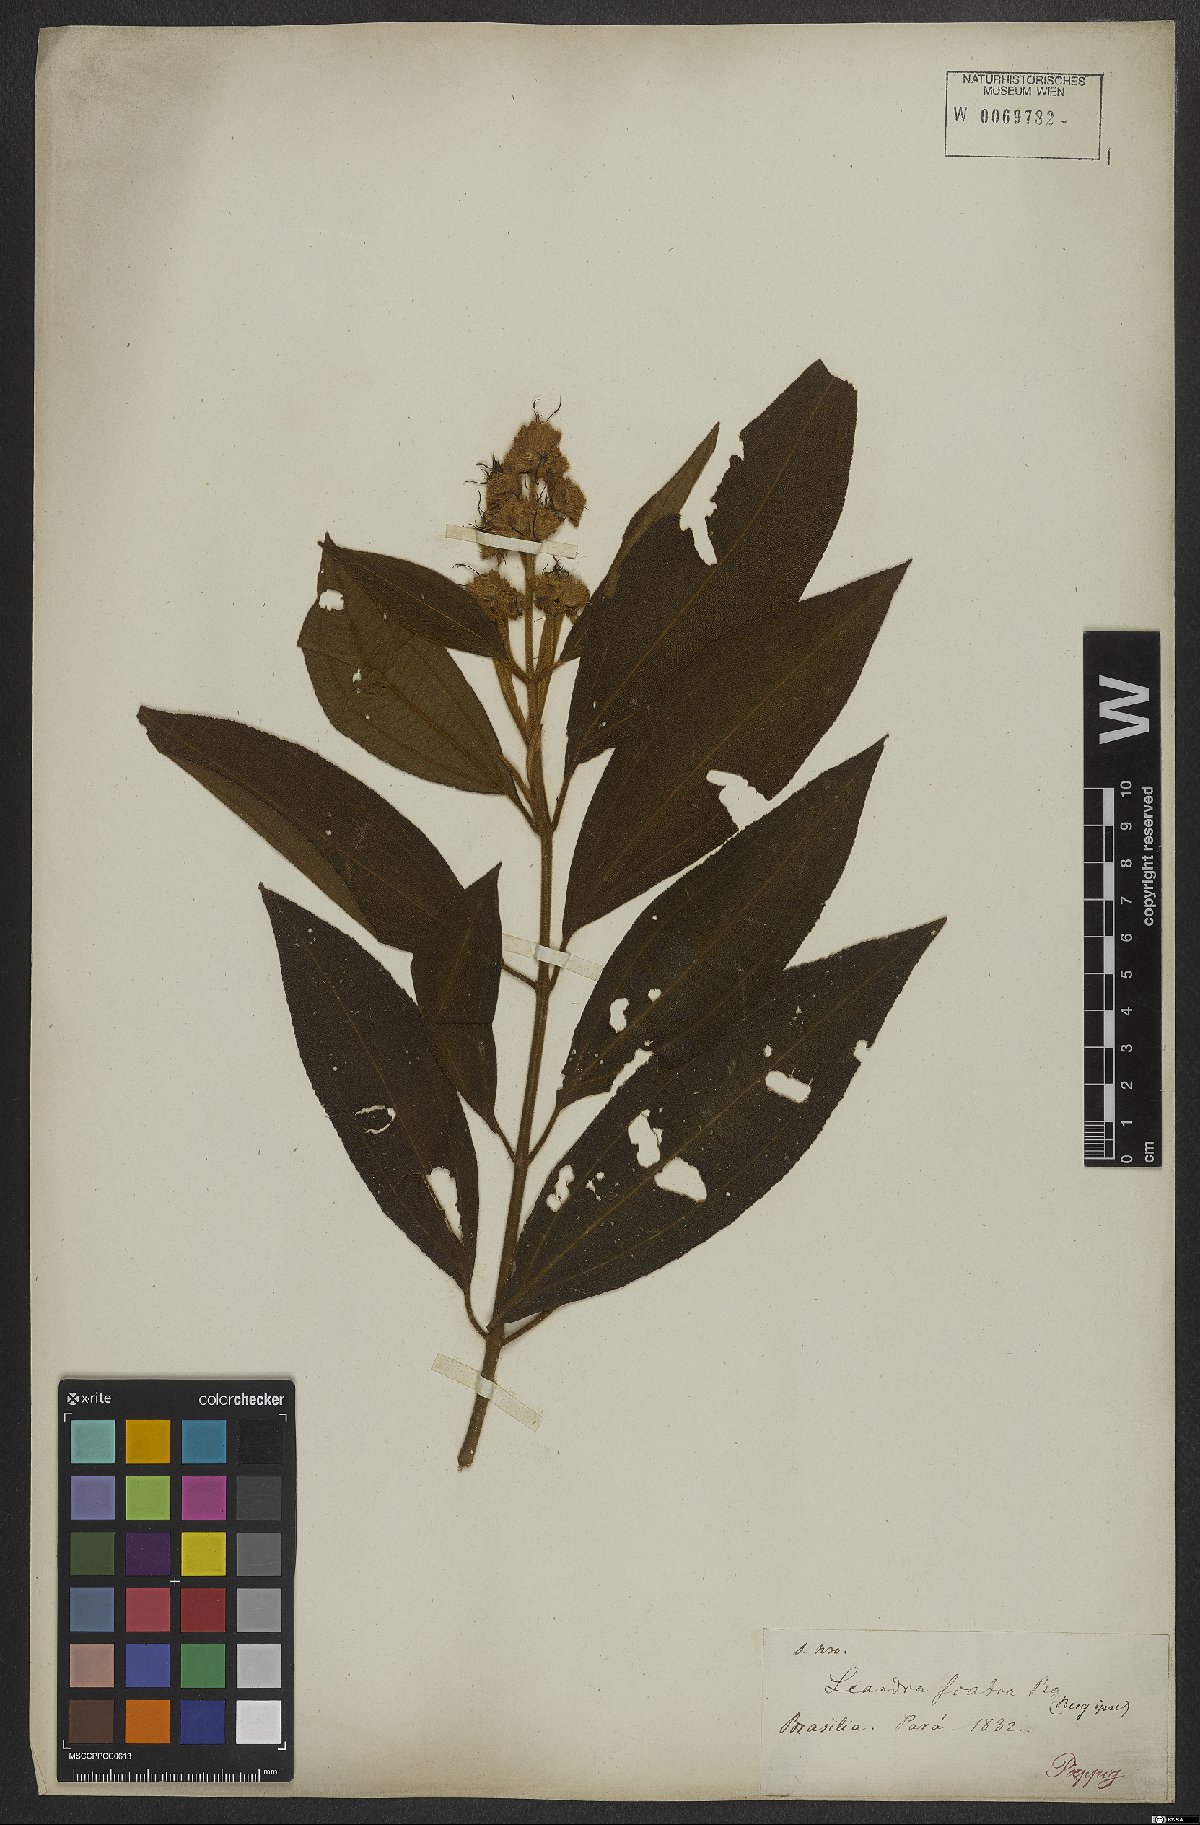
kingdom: Plantae
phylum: Tracheophyta
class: Magnoliopsida
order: Myrtales
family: Melastomataceae
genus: Miconia
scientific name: Miconia melastomoides
